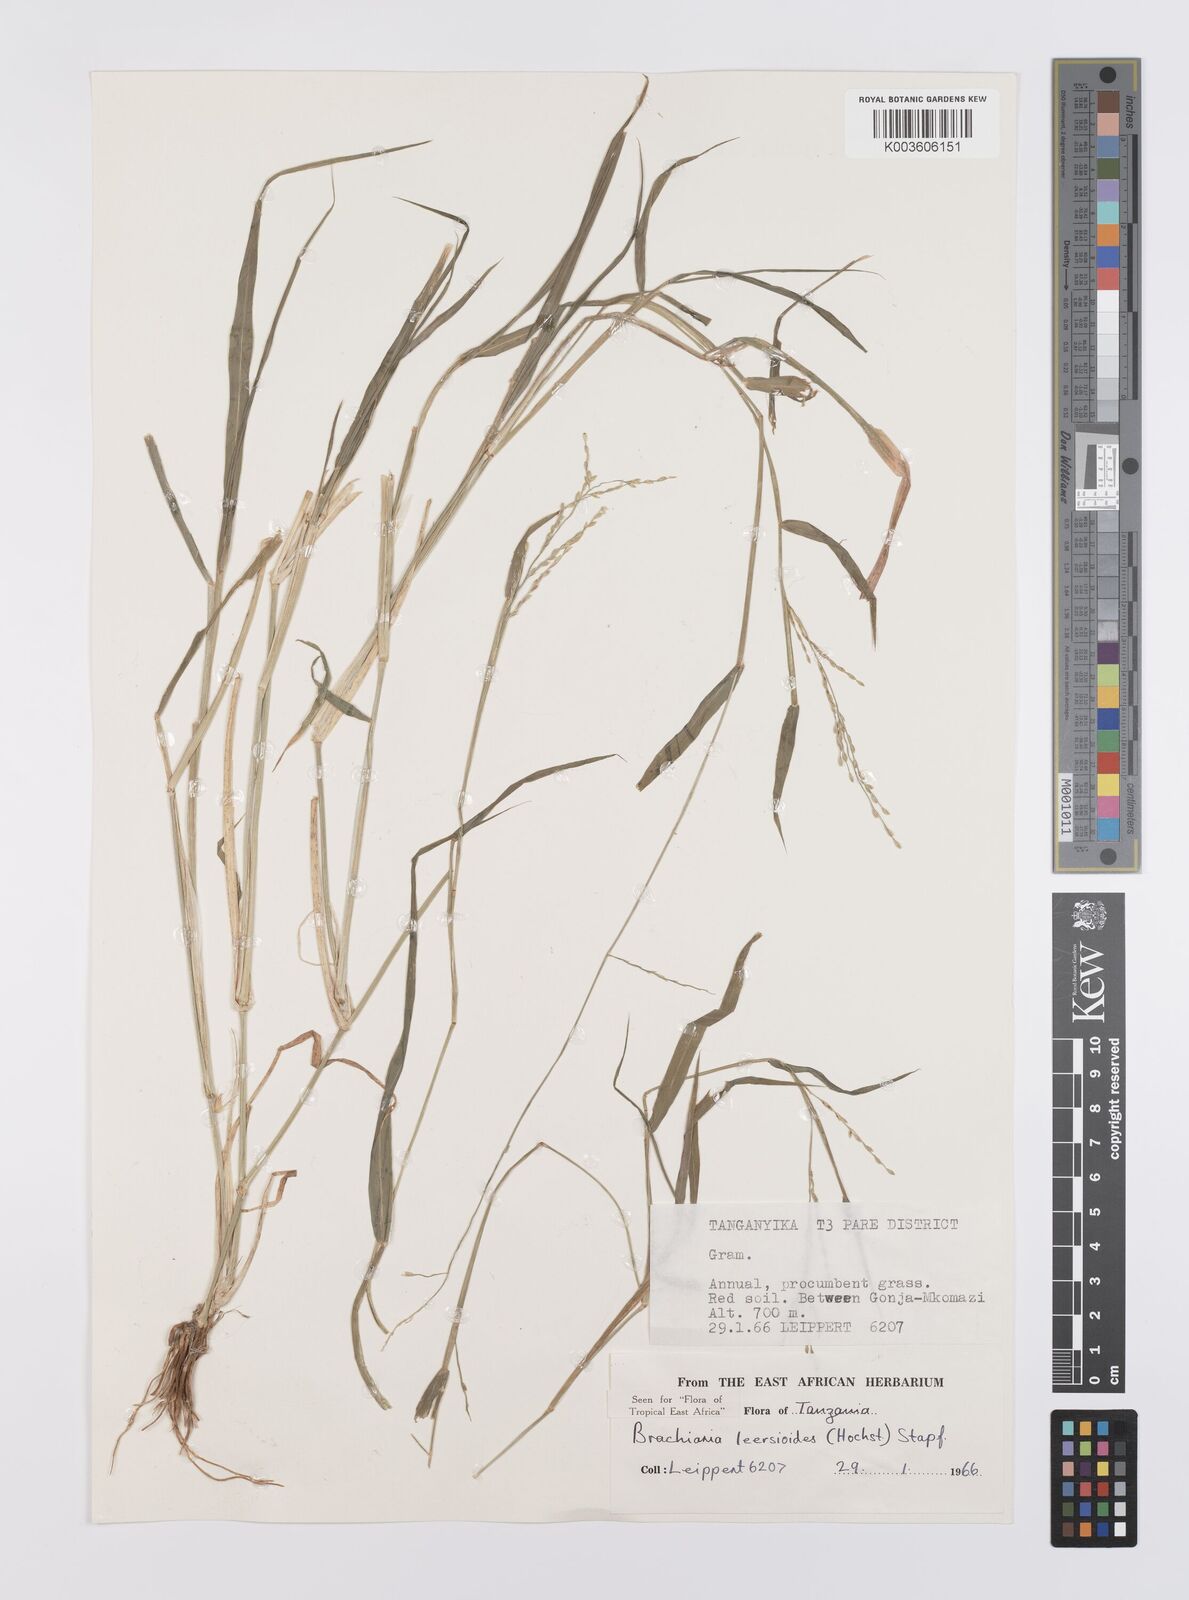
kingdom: Plantae
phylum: Tracheophyta
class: Liliopsida
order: Poales
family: Poaceae
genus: Urochloa
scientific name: Urochloa leersioides
